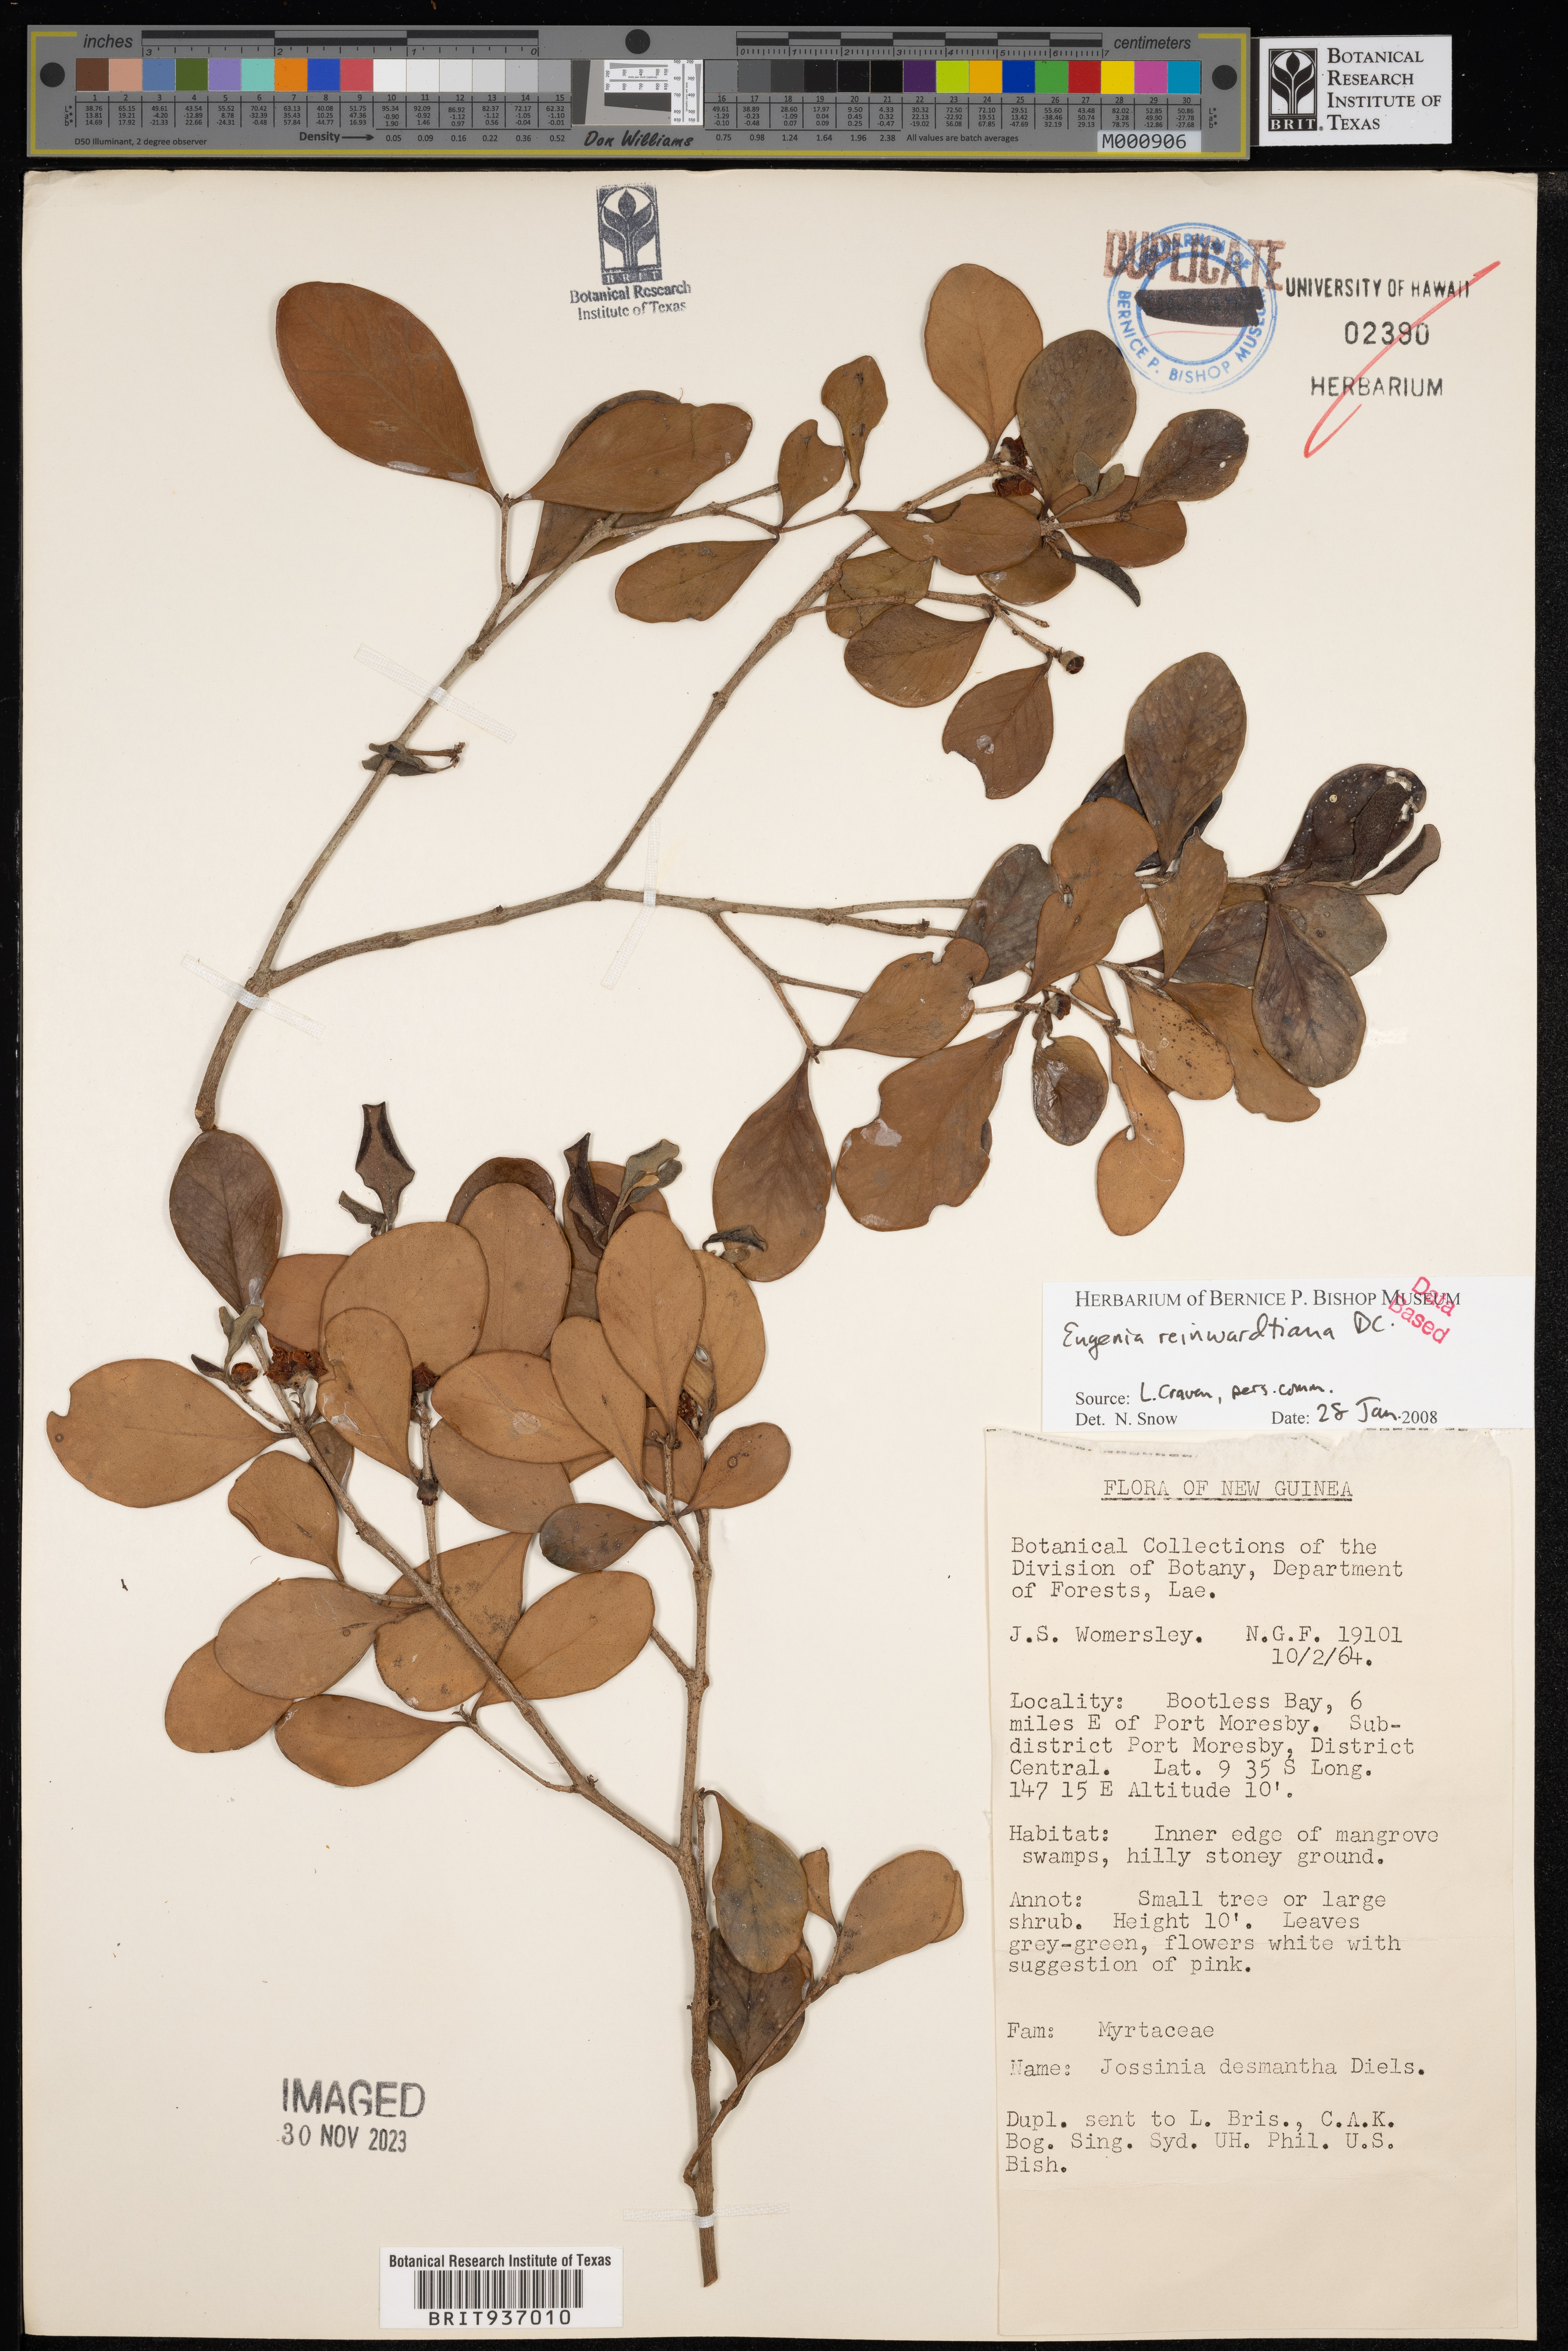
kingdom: Plantae
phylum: Tracheophyta
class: Magnoliopsida
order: Myrtales
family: Myrtaceae
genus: Eugenia
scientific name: Eugenia
